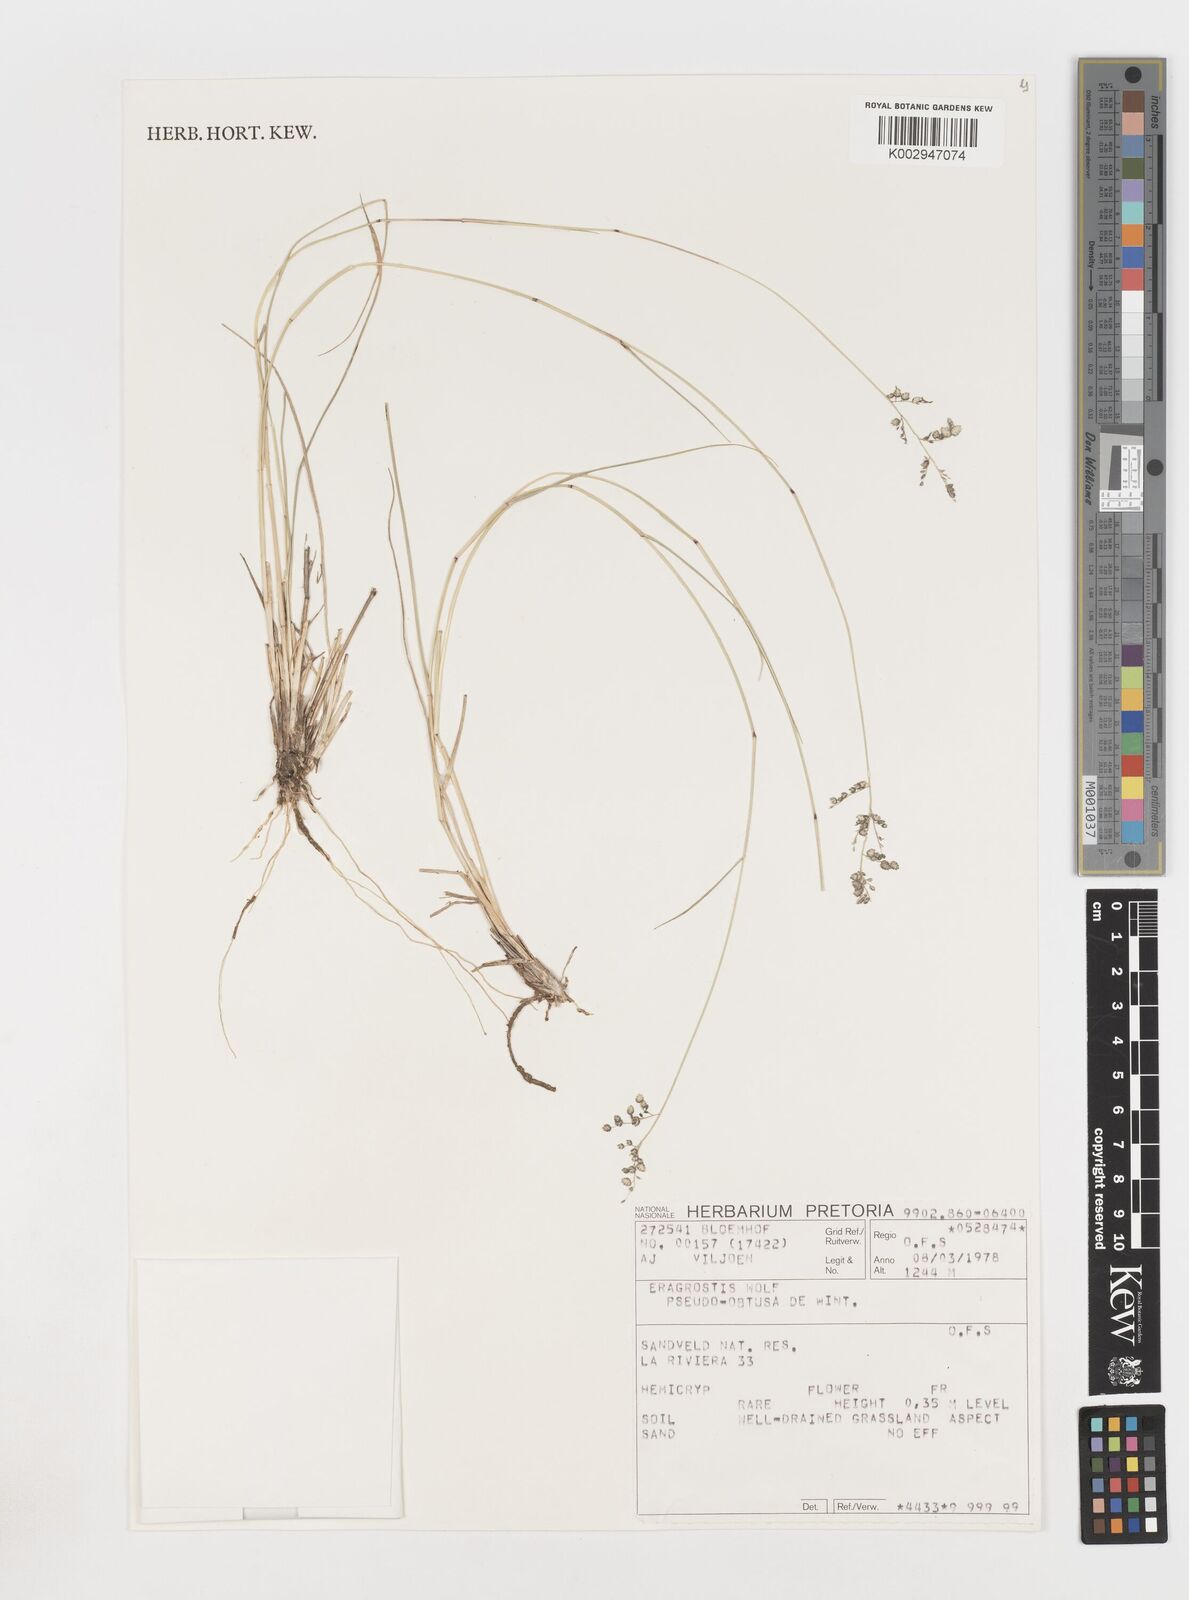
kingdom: Plantae
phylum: Tracheophyta
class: Liliopsida
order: Poales
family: Poaceae
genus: Eragrostis
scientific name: Eragrostis pseudobtusa
